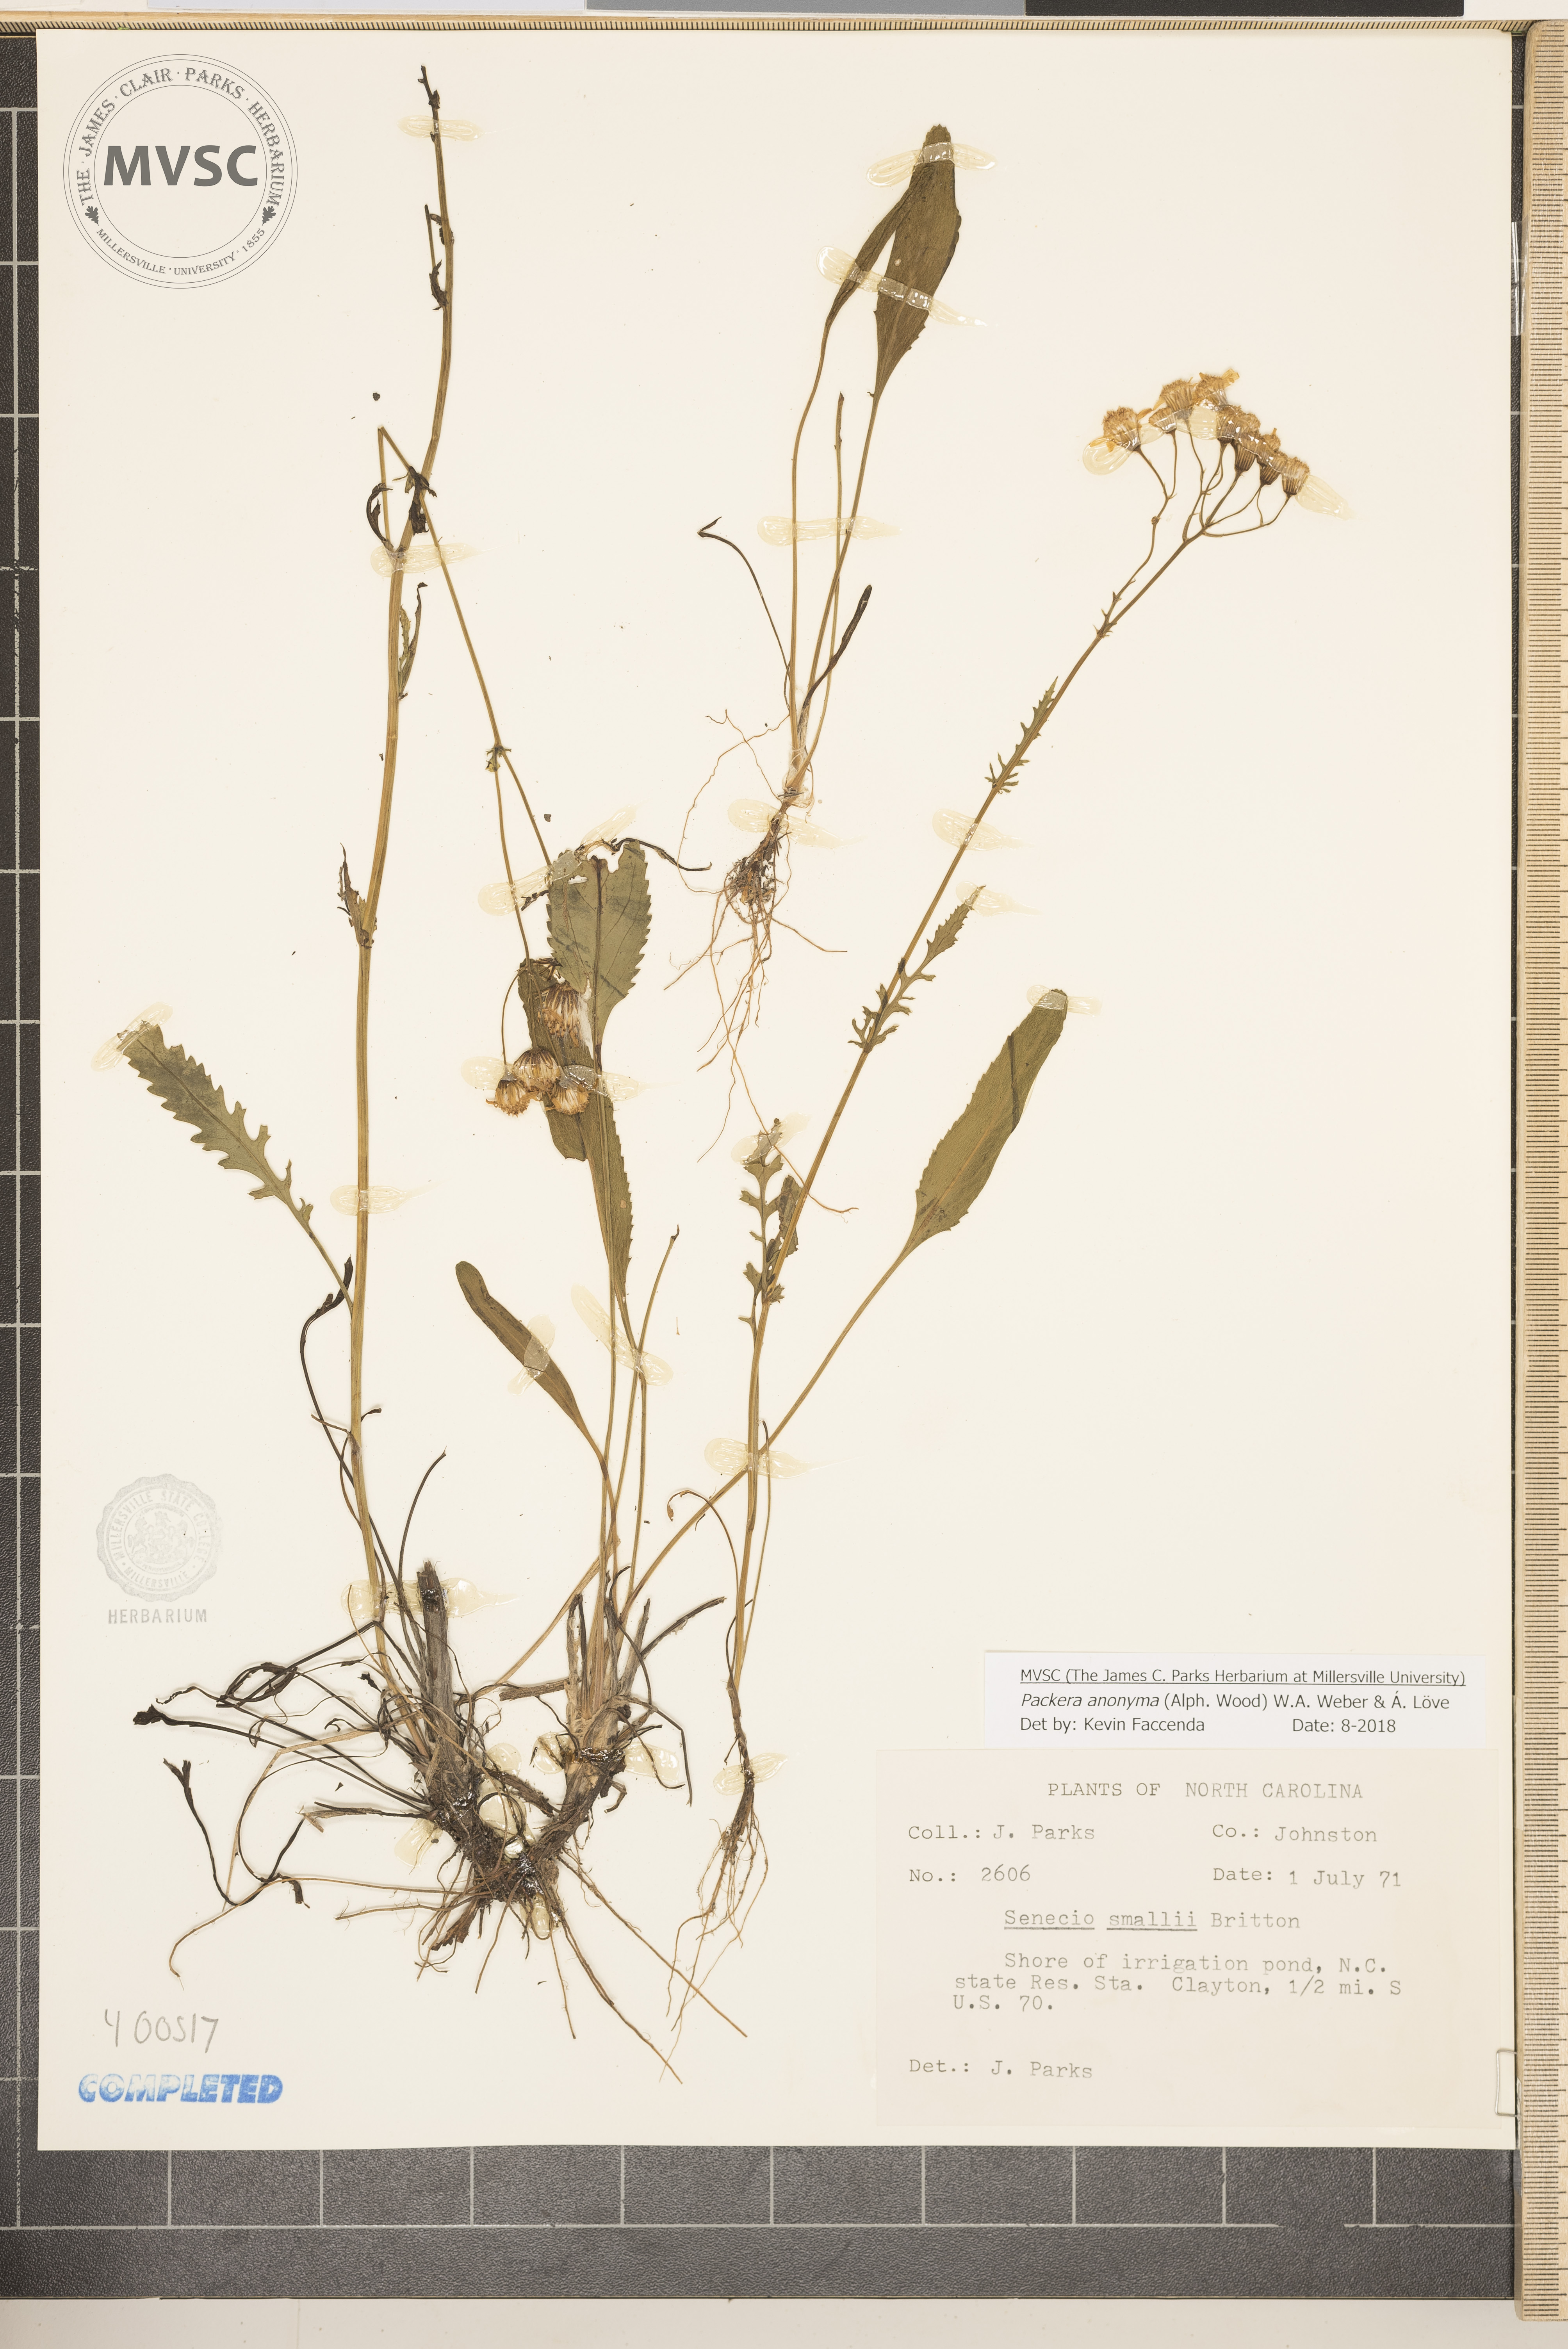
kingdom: Plantae
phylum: Tracheophyta
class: Magnoliopsida
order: Asterales
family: Asteraceae
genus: Packera
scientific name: Packera anonyma
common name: Small ragwort
